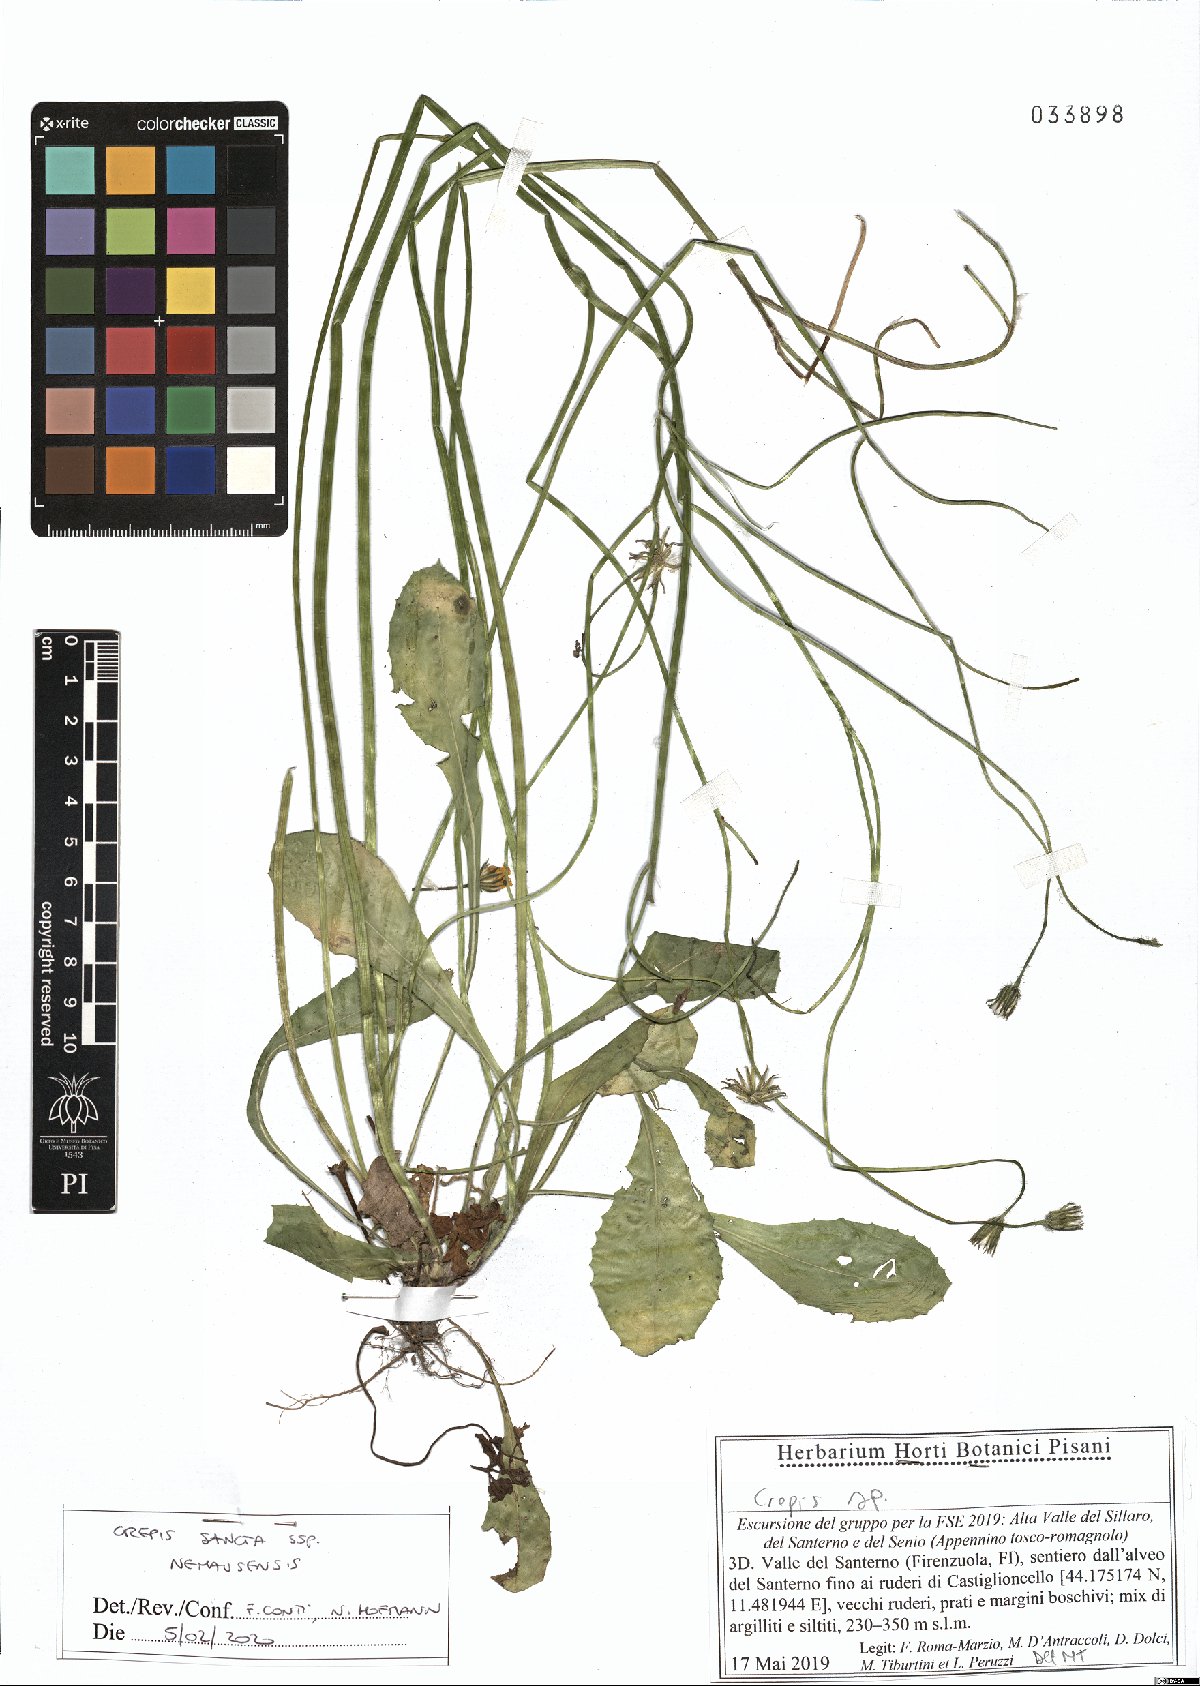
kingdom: Plantae
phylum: Tracheophyta
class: Magnoliopsida
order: Asterales
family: Asteraceae
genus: Crepis
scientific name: Crepis sancta
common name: Hawk's-beard
